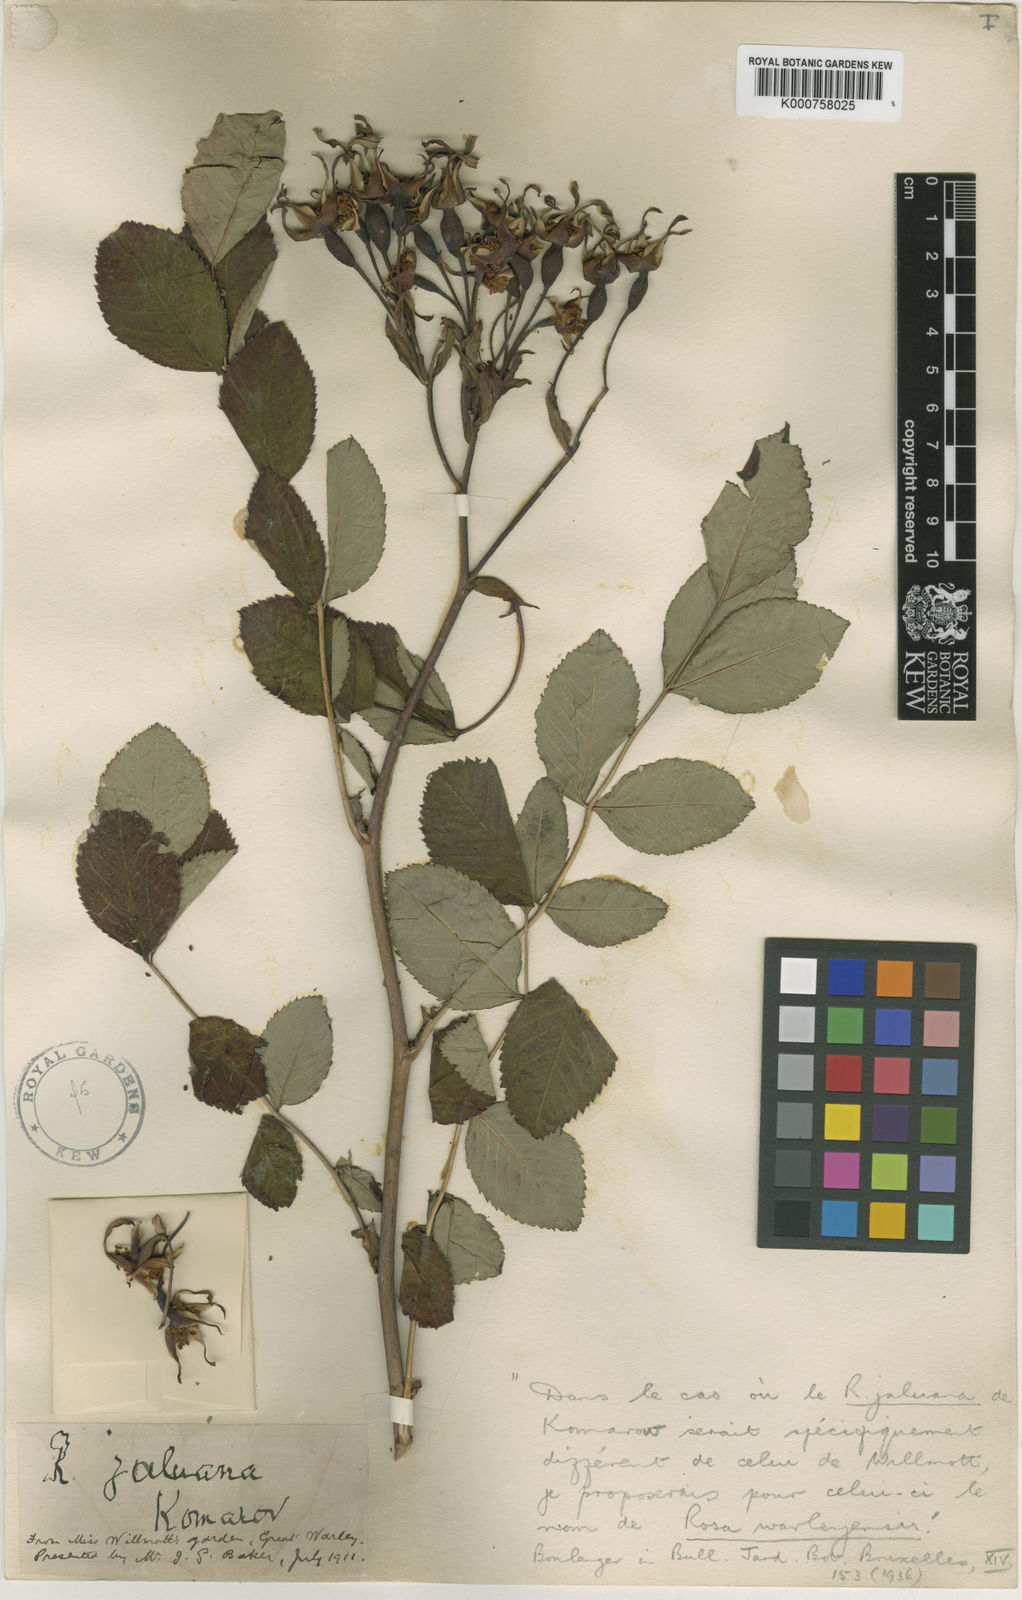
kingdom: Plantae
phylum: Tracheophyta
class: Magnoliopsida
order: Rosales
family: Rosaceae
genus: Rosa
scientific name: Rosa maximowicziana
